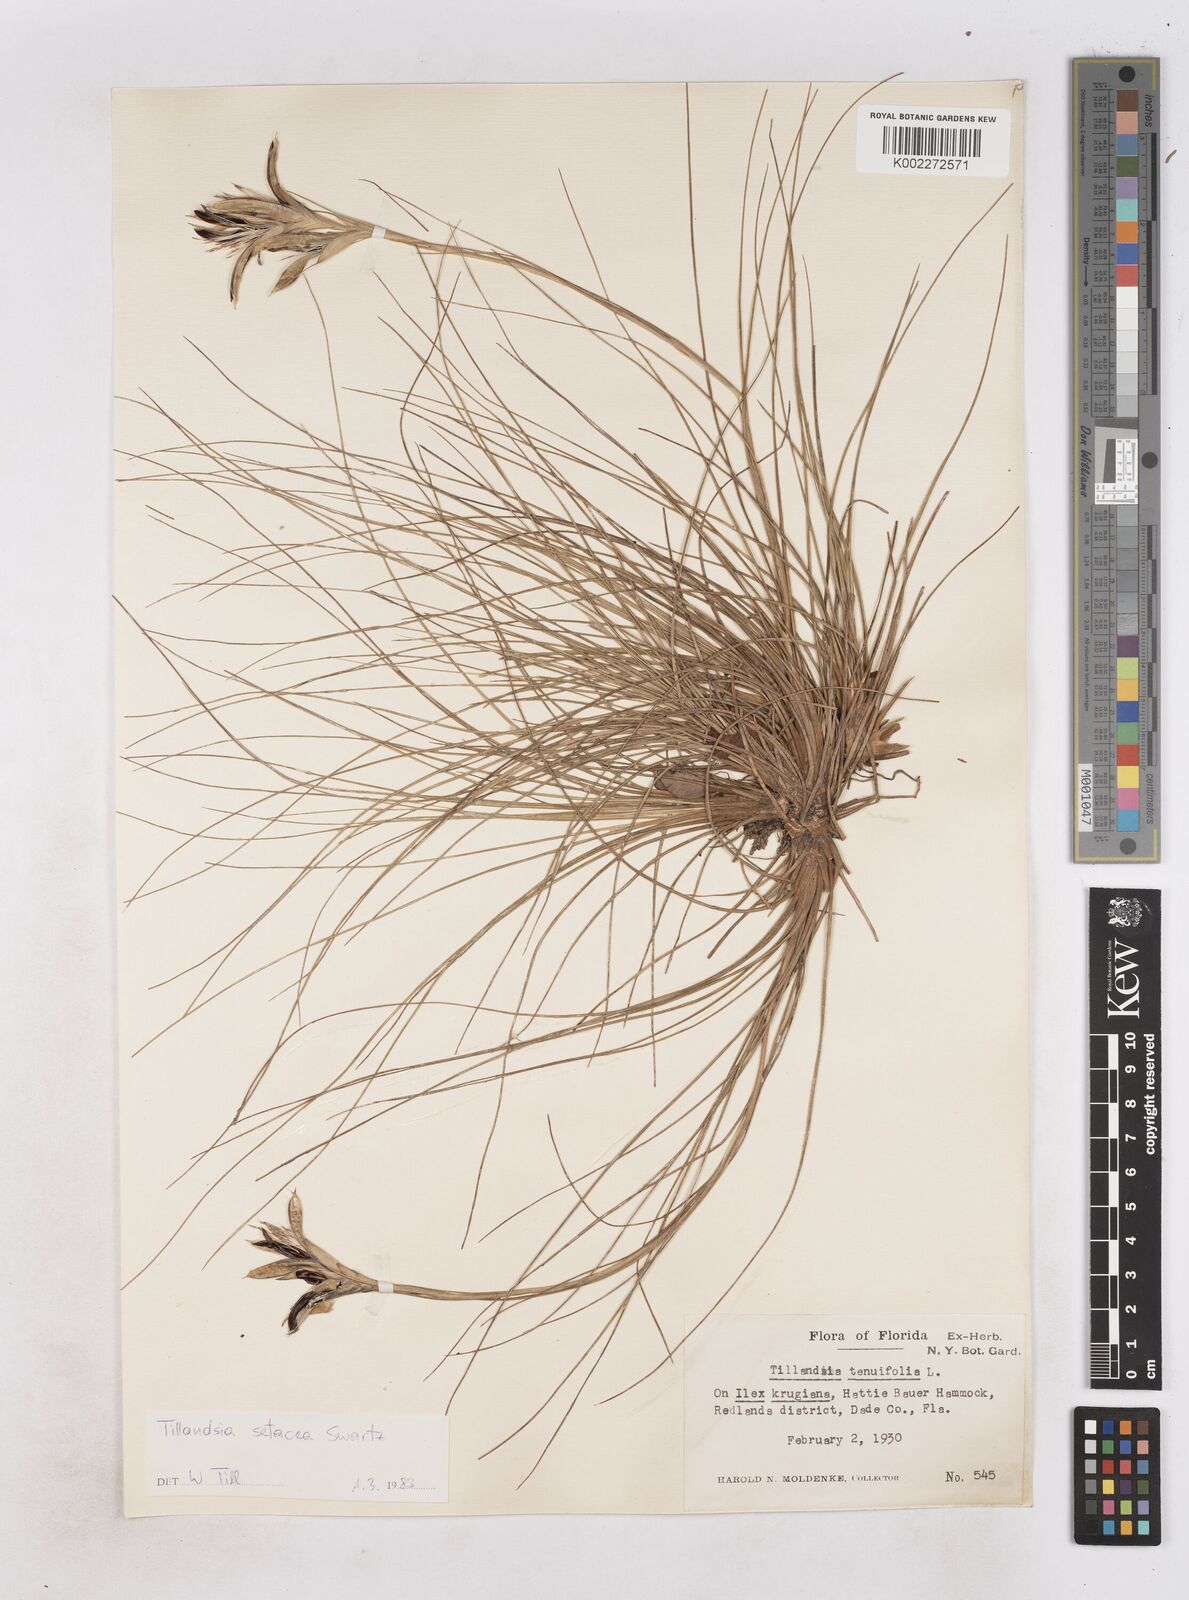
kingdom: Plantae
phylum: Tracheophyta
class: Liliopsida
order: Poales
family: Bromeliaceae
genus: Tillandsia
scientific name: Tillandsia
